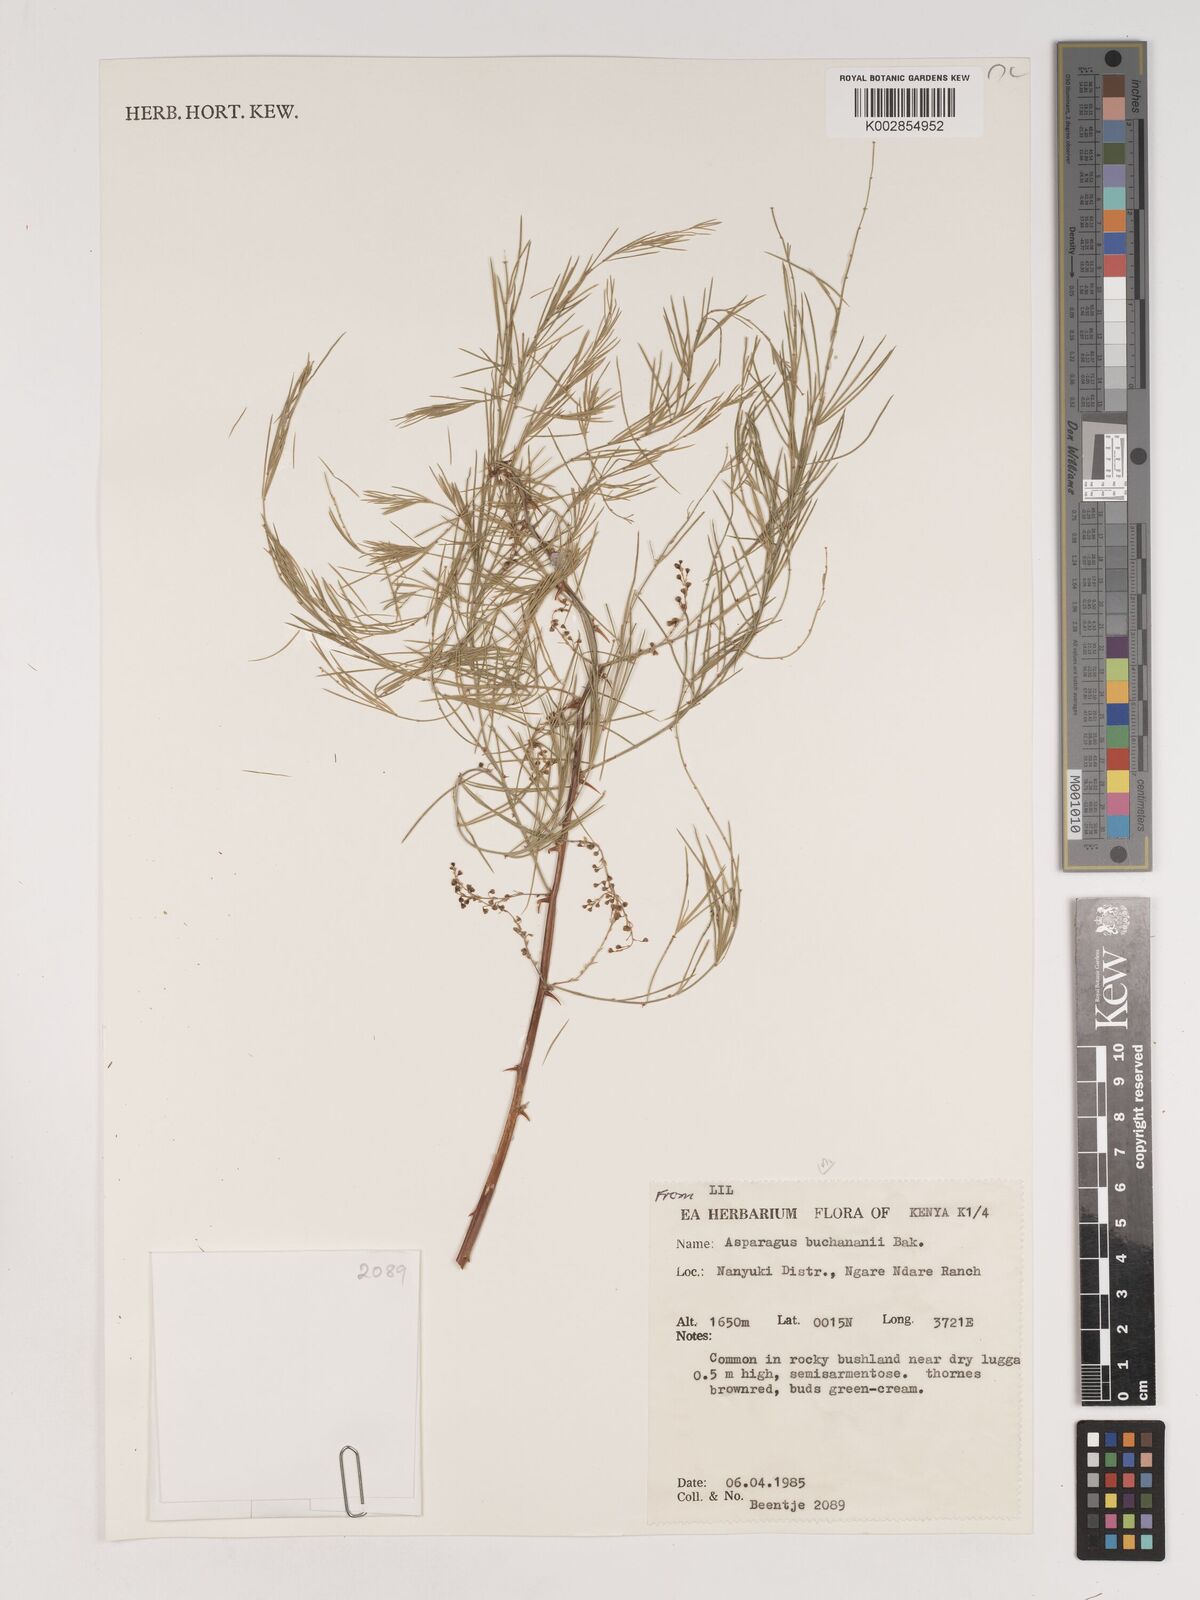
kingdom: Plantae
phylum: Tracheophyta
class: Liliopsida
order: Asparagales
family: Asparagaceae
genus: Asparagus
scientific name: Asparagus buchananii
